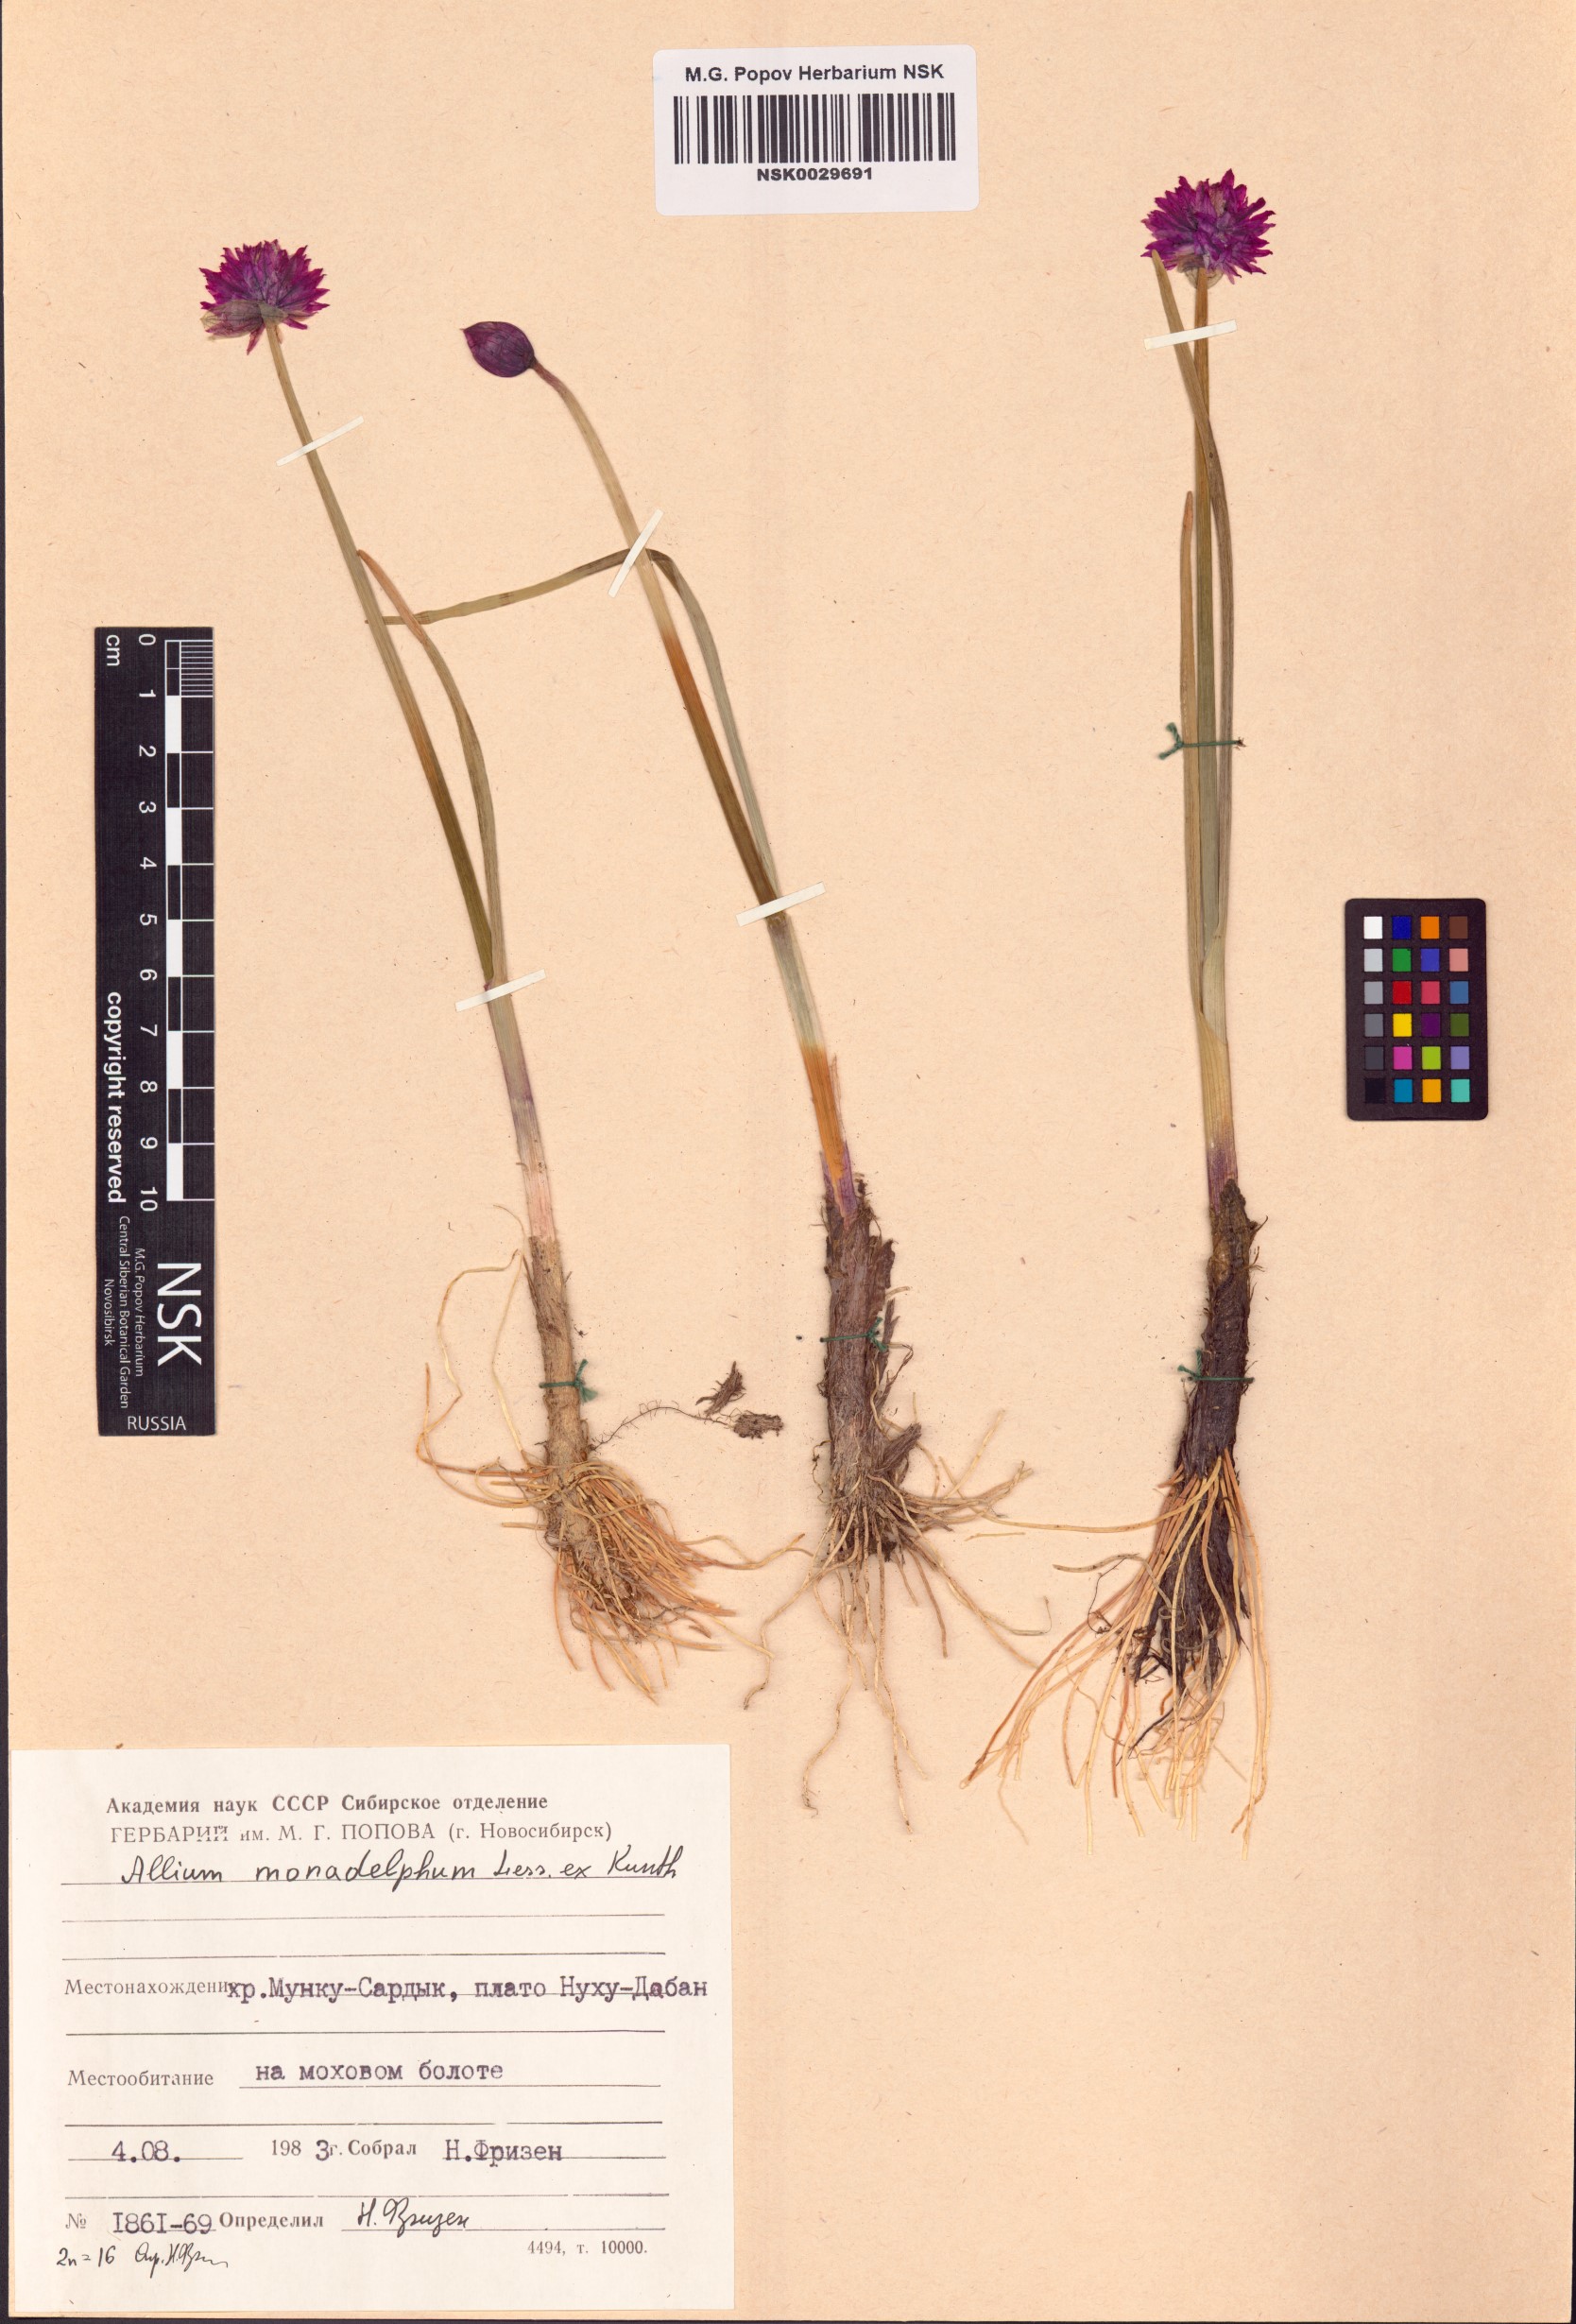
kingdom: Plantae
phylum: Tracheophyta
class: Liliopsida
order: Asparagales
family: Amaryllidaceae
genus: Allium
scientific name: Allium atrosanguineum
